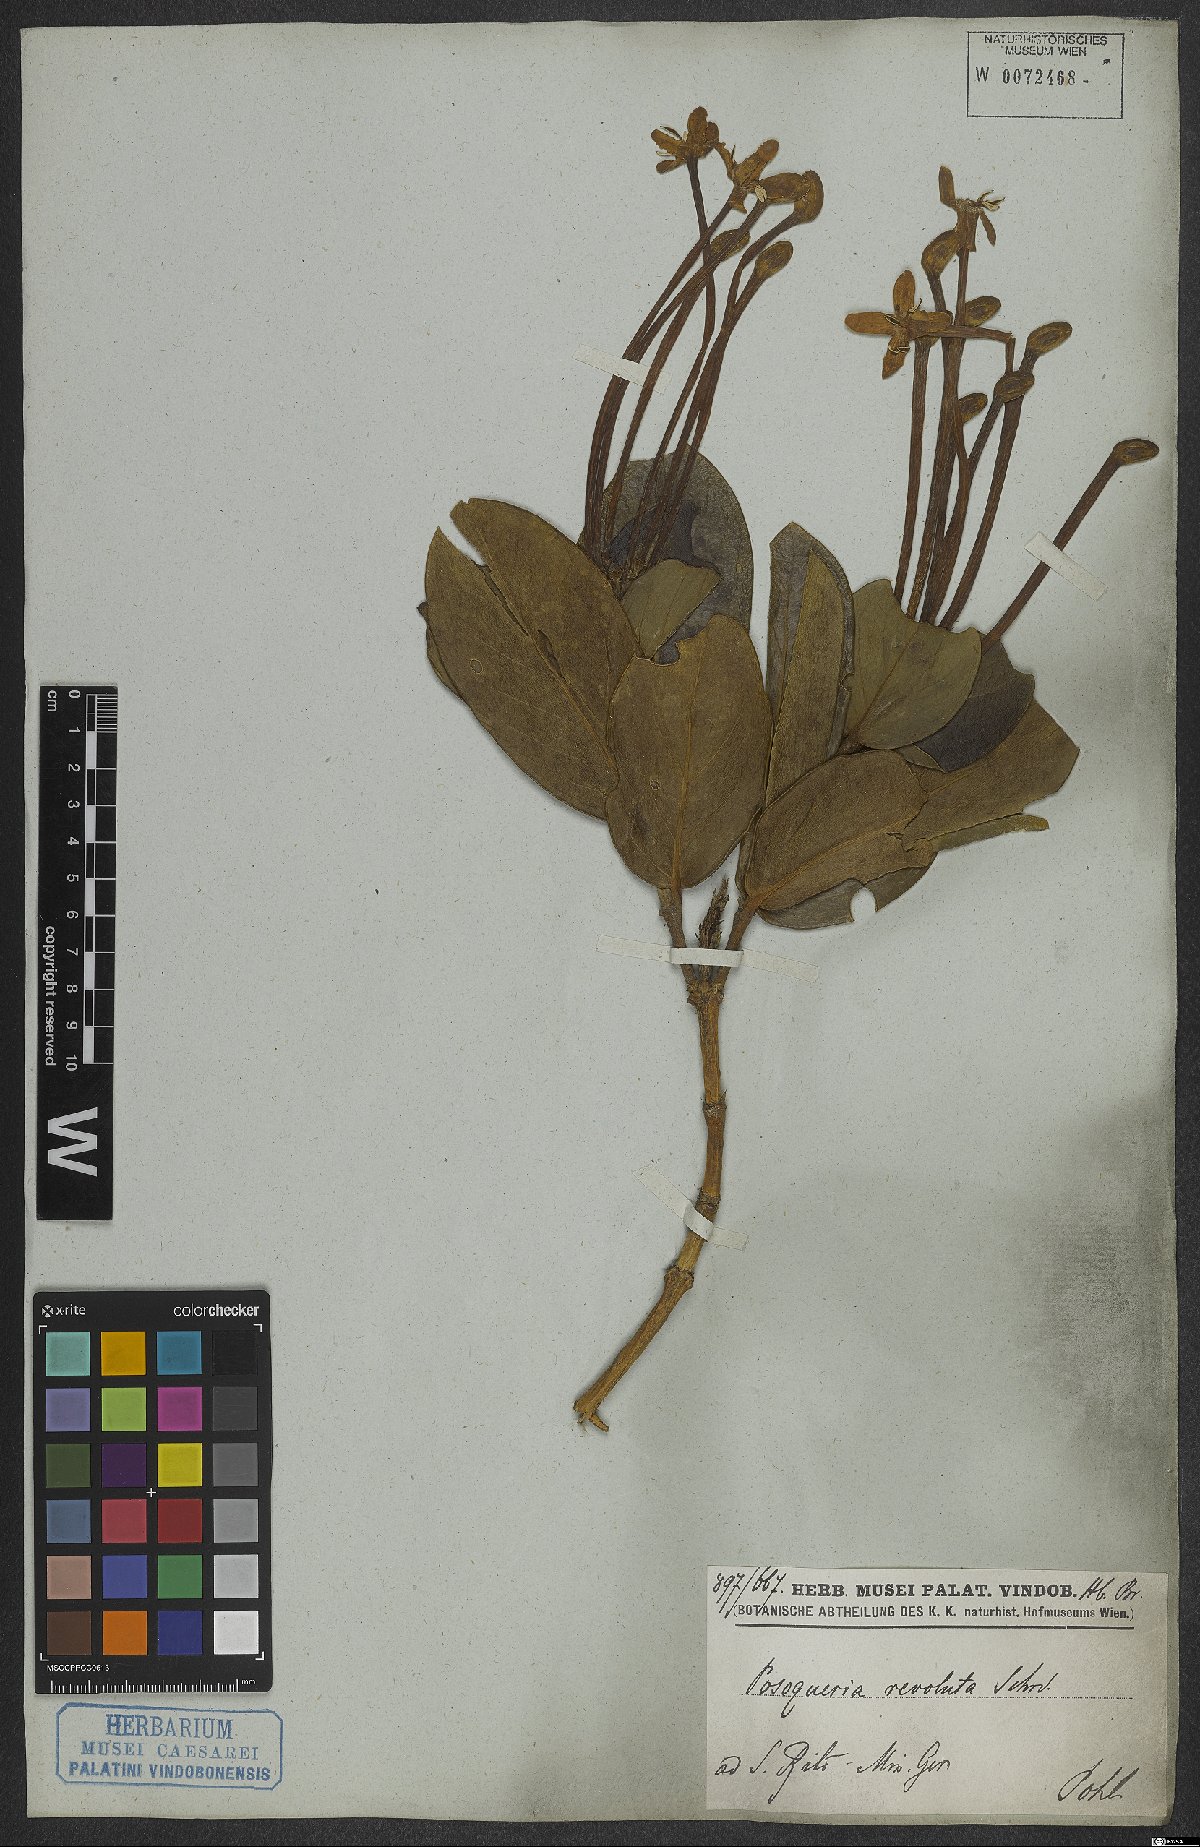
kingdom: Plantae
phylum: Tracheophyta
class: Magnoliopsida
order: Gentianales
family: Rubiaceae
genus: Posoqueria
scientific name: Posoqueria latifolia
